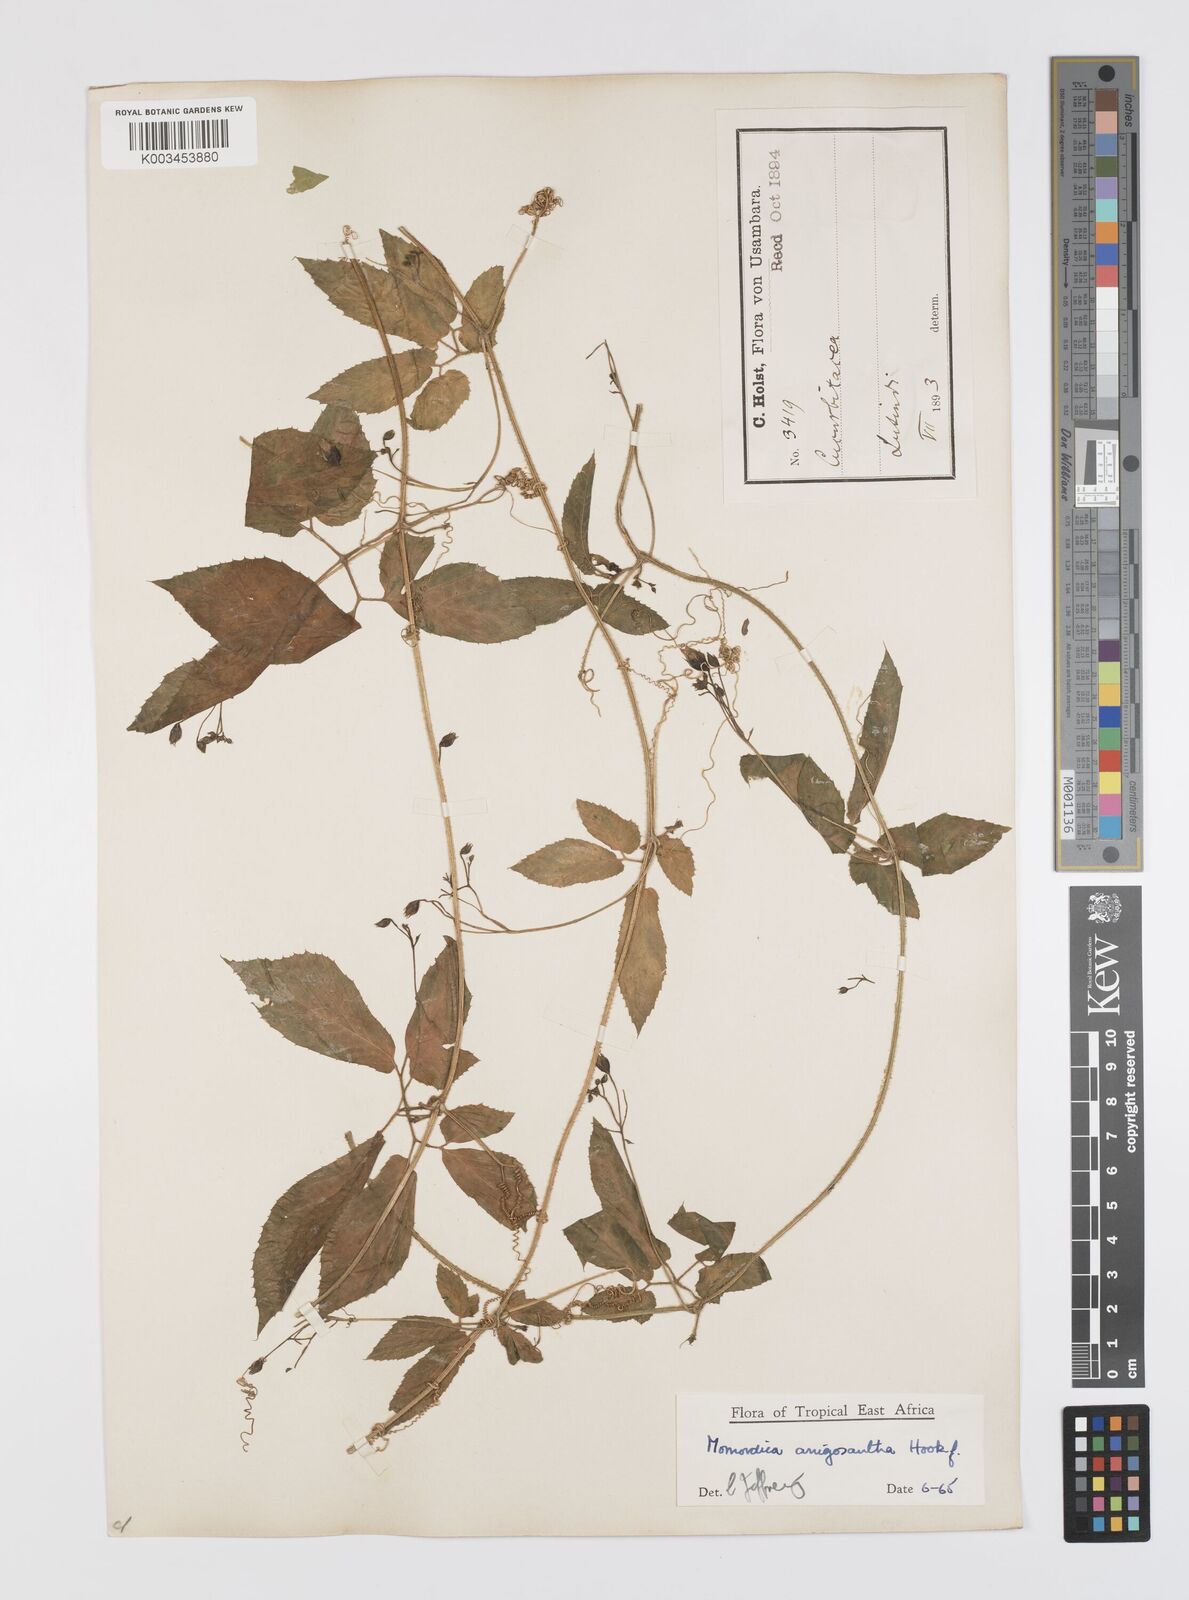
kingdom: Plantae
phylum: Tracheophyta
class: Magnoliopsida
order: Cucurbitales
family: Cucurbitaceae
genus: Momordica
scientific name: Momordica anigosantha
